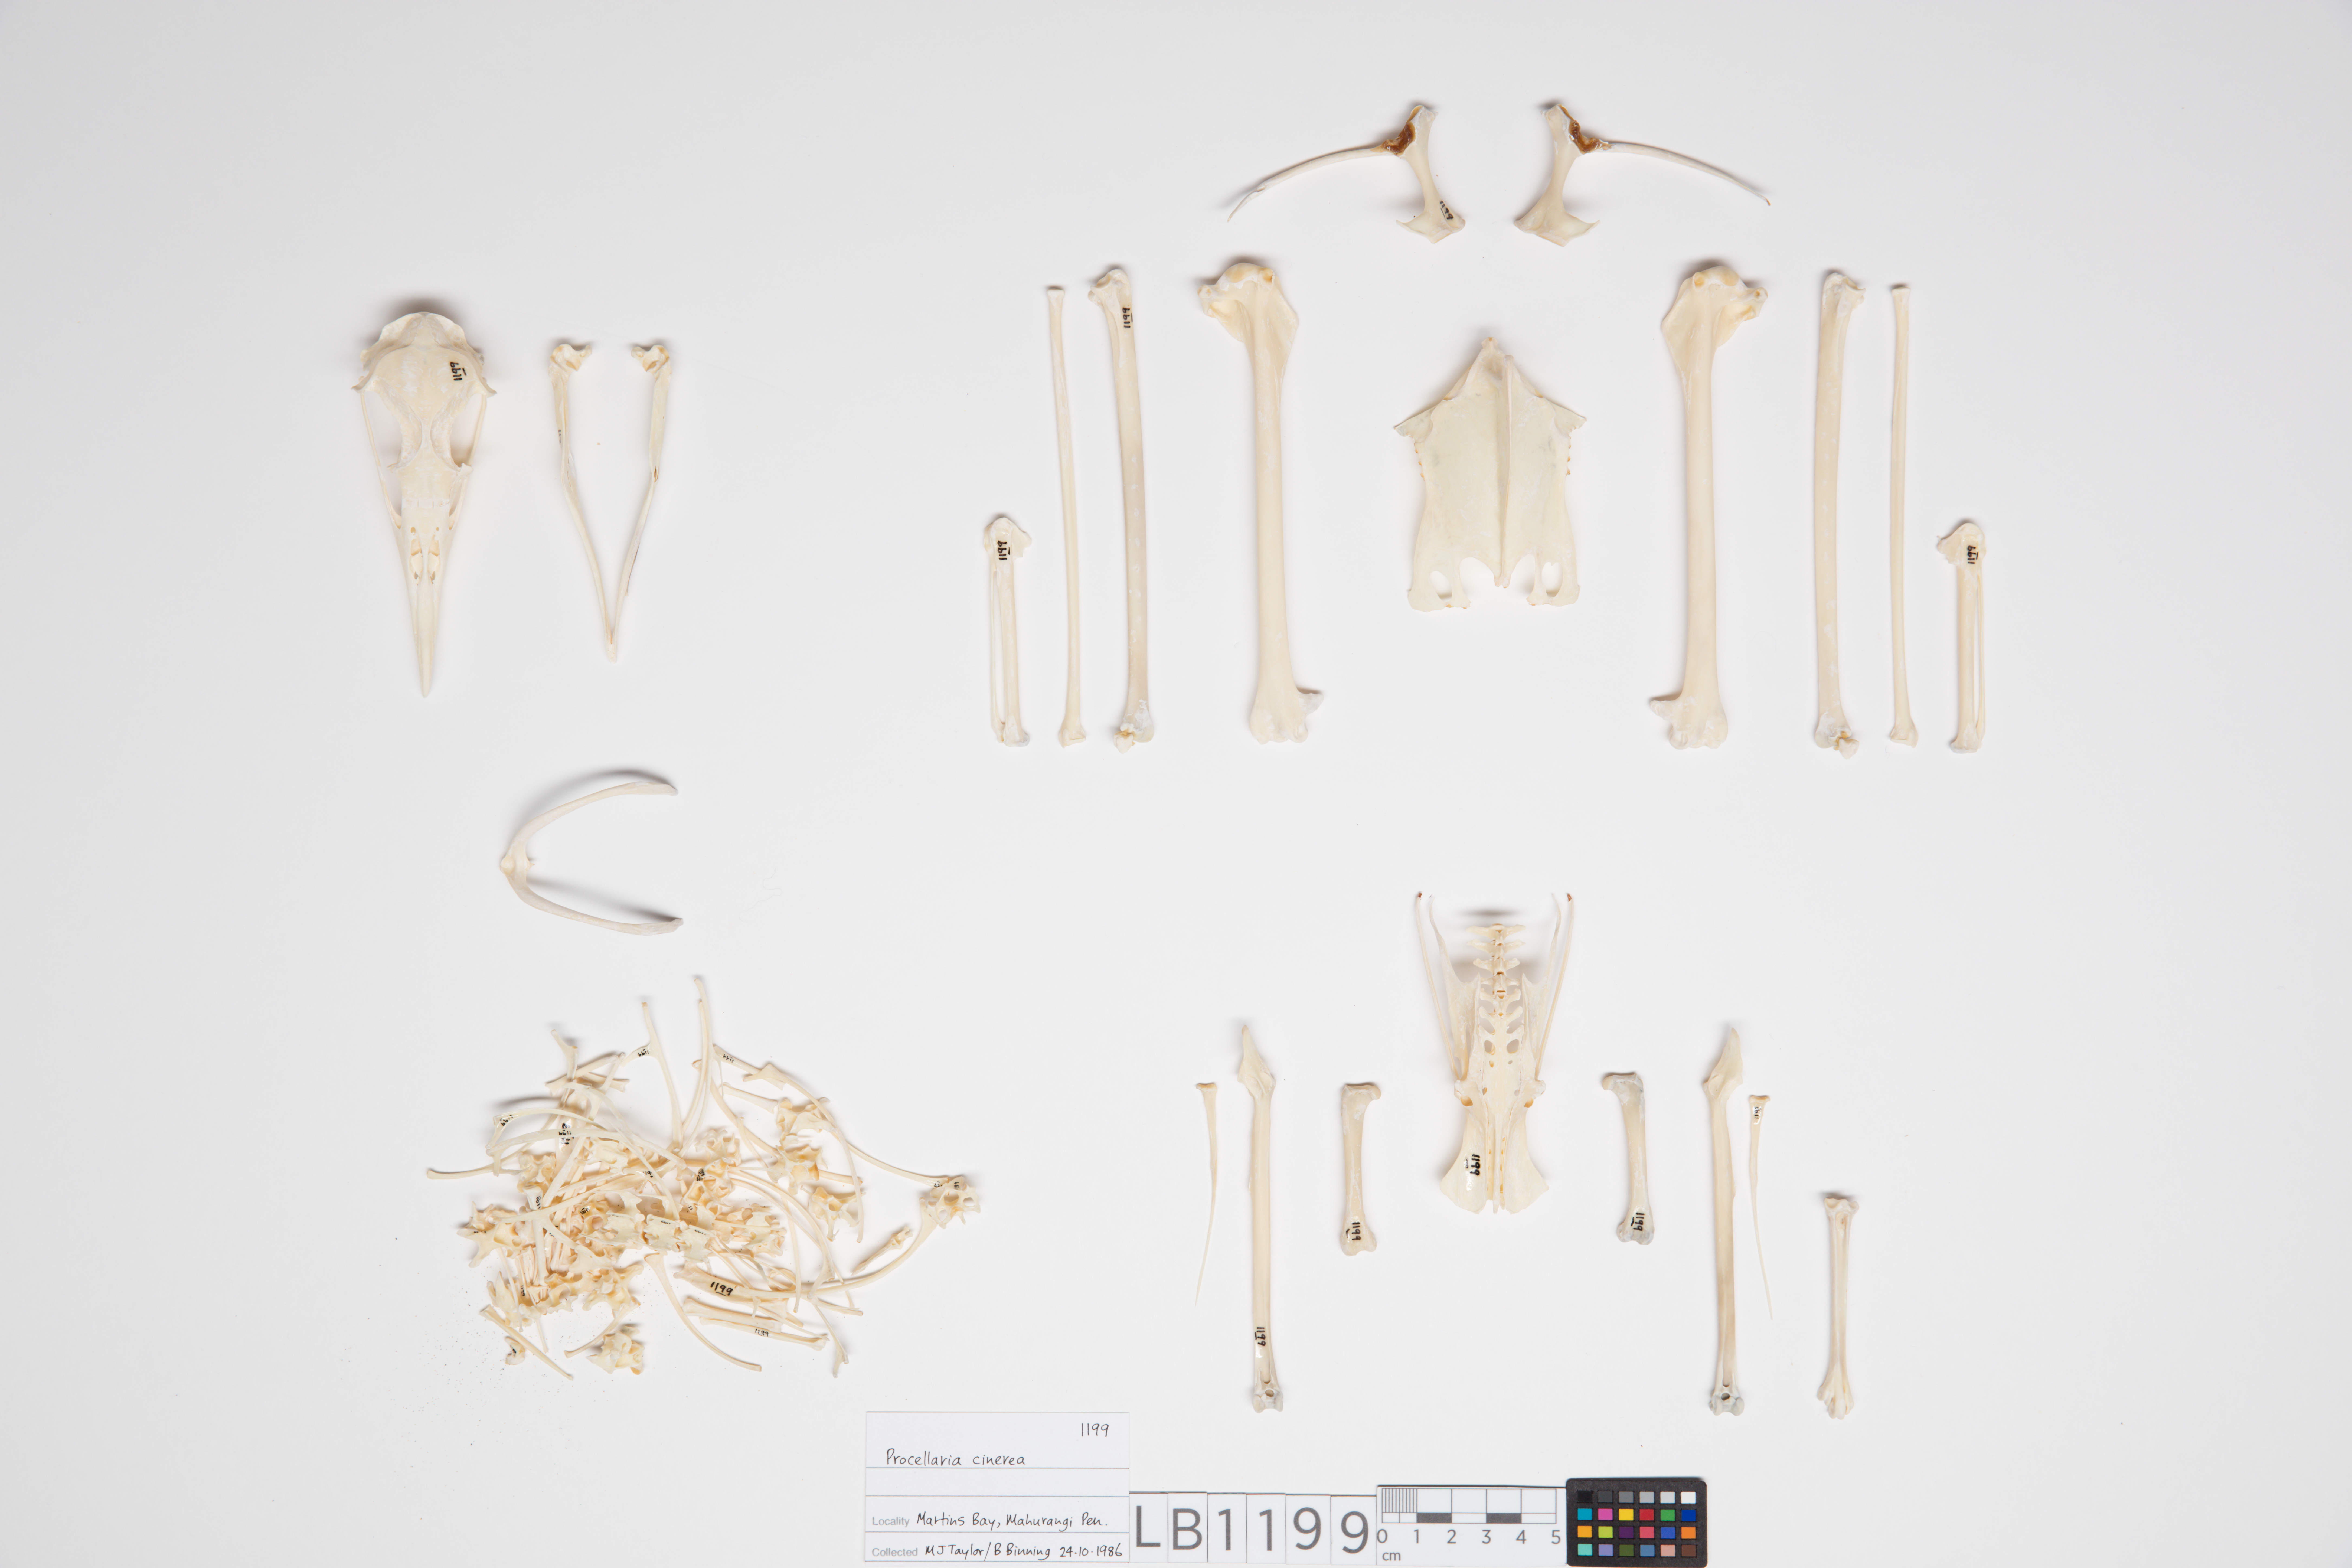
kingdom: Animalia
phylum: Chordata
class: Aves
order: Procellariiformes
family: Procellariidae
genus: Procellaria
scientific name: Procellaria cinerea
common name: Grey petrel
